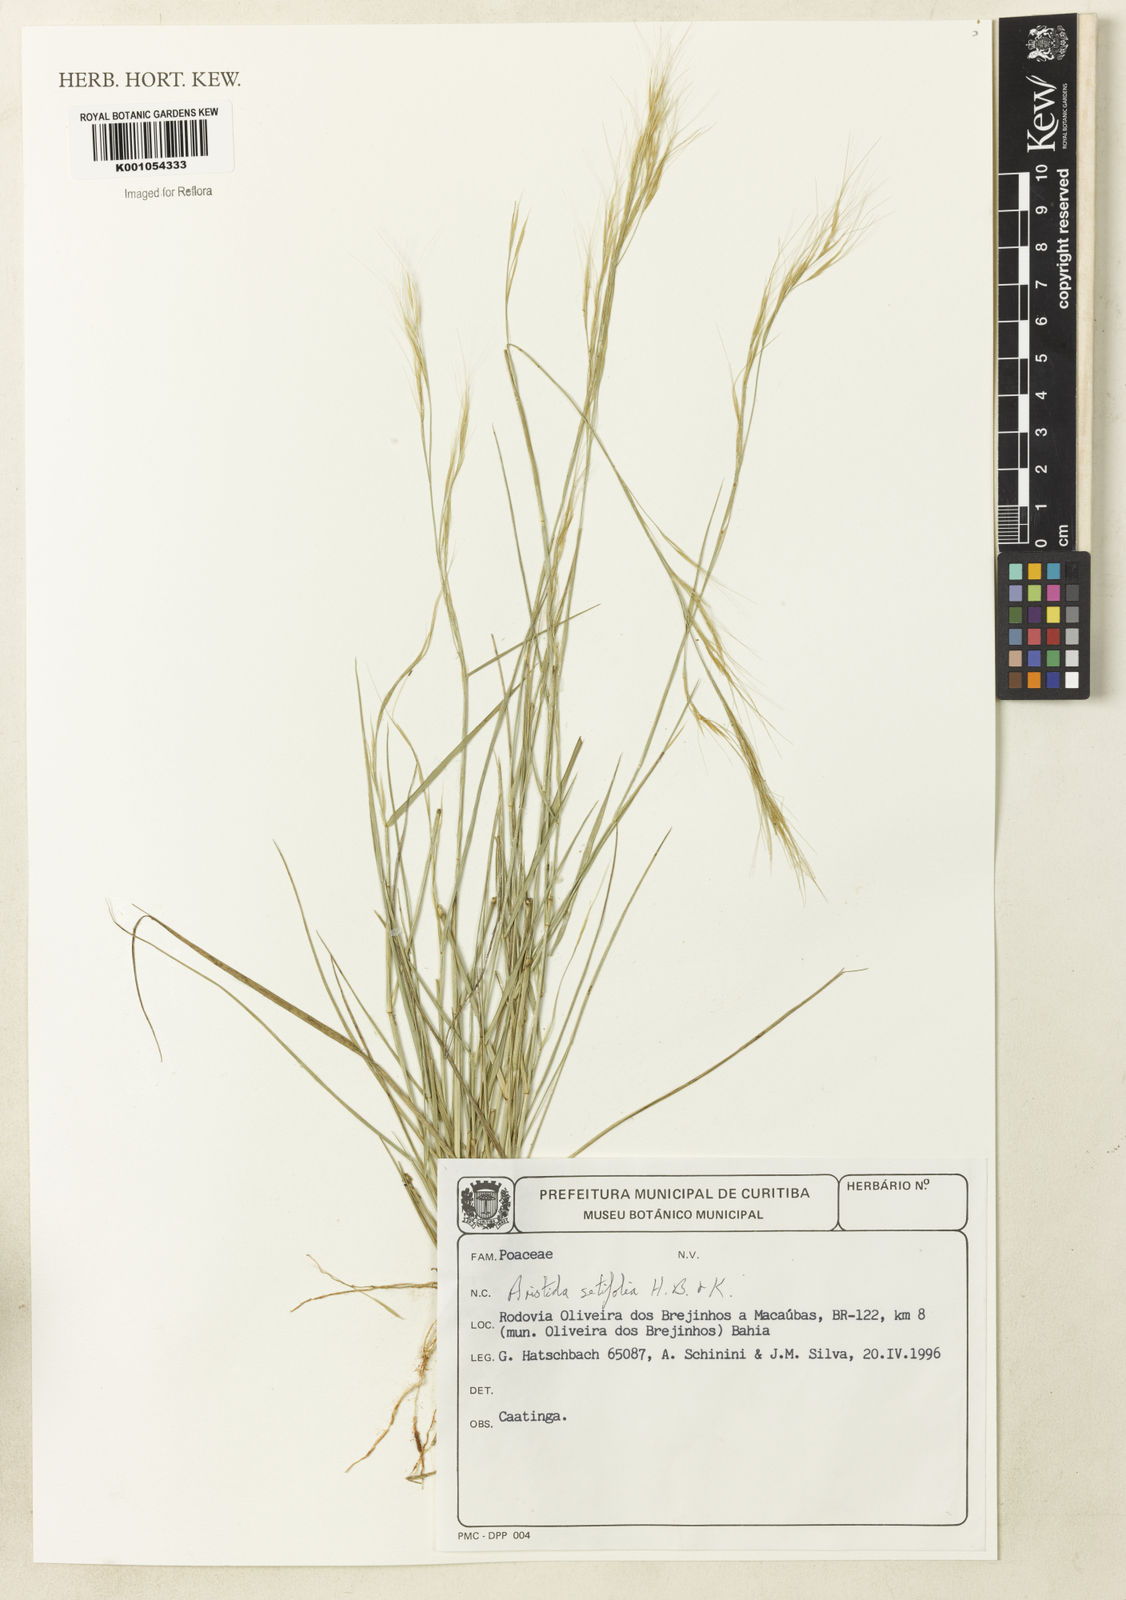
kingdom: Plantae
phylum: Tracheophyta
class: Liliopsida
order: Poales
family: Poaceae
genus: Aristida
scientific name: Aristida setifolia
